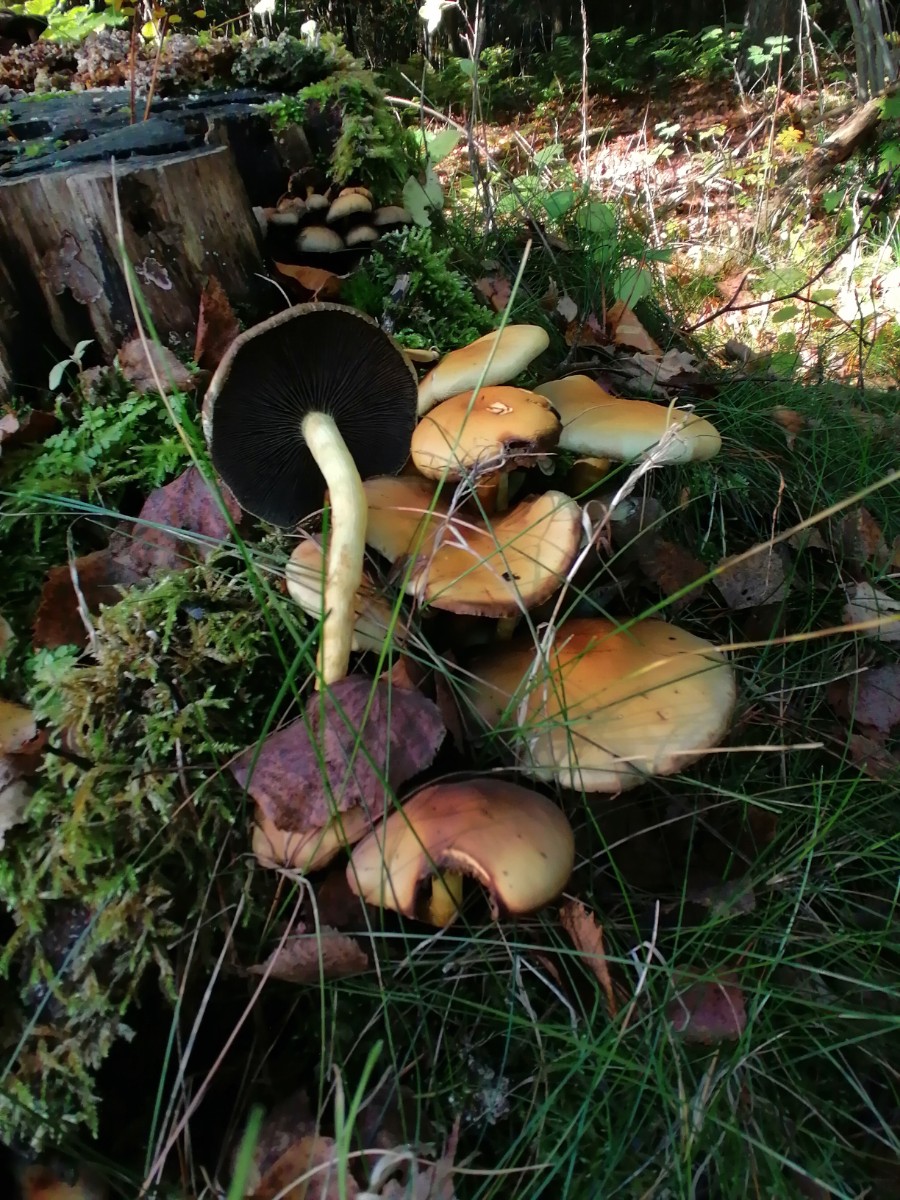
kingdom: Fungi
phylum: Basidiomycota
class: Agaricomycetes
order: Agaricales
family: Strophariaceae
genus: Hypholoma
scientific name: Hypholoma fasciculare
